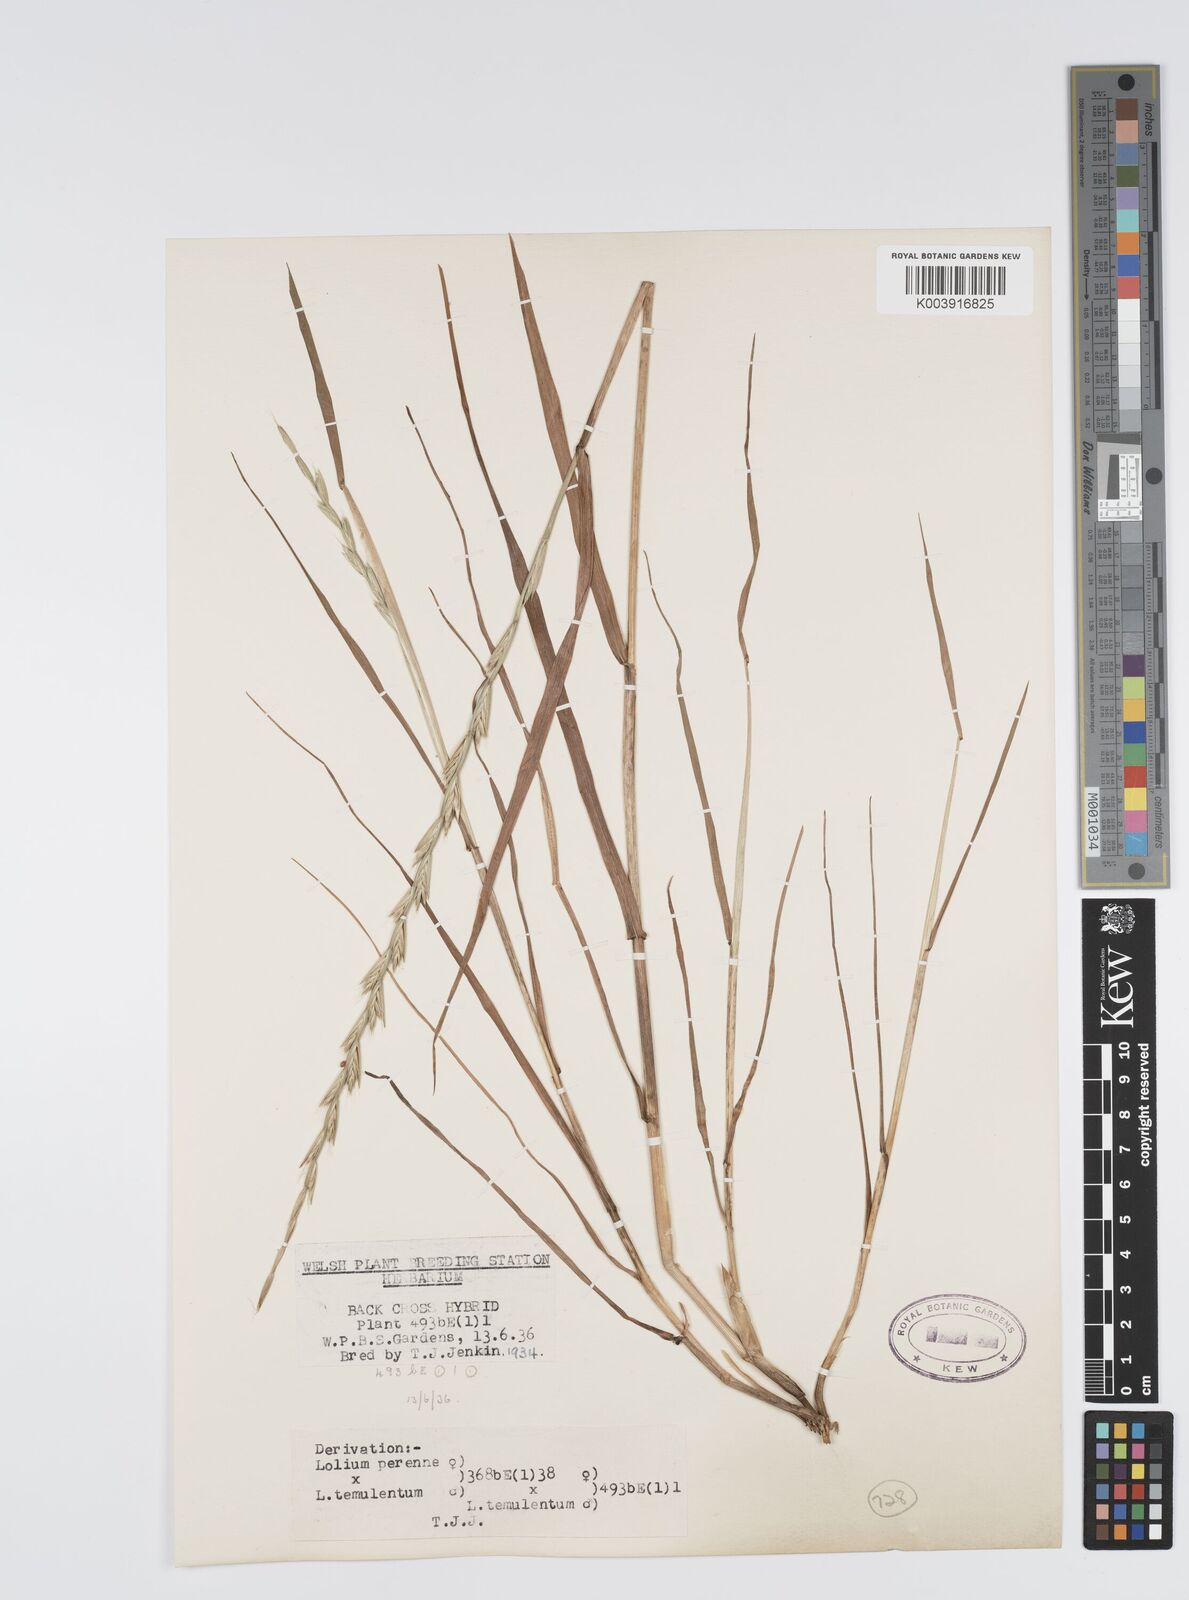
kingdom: Plantae
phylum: Tracheophyta
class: Liliopsida
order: Poales
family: Poaceae
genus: Lolium
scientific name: Lolium perenne
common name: Perennial ryegrass
